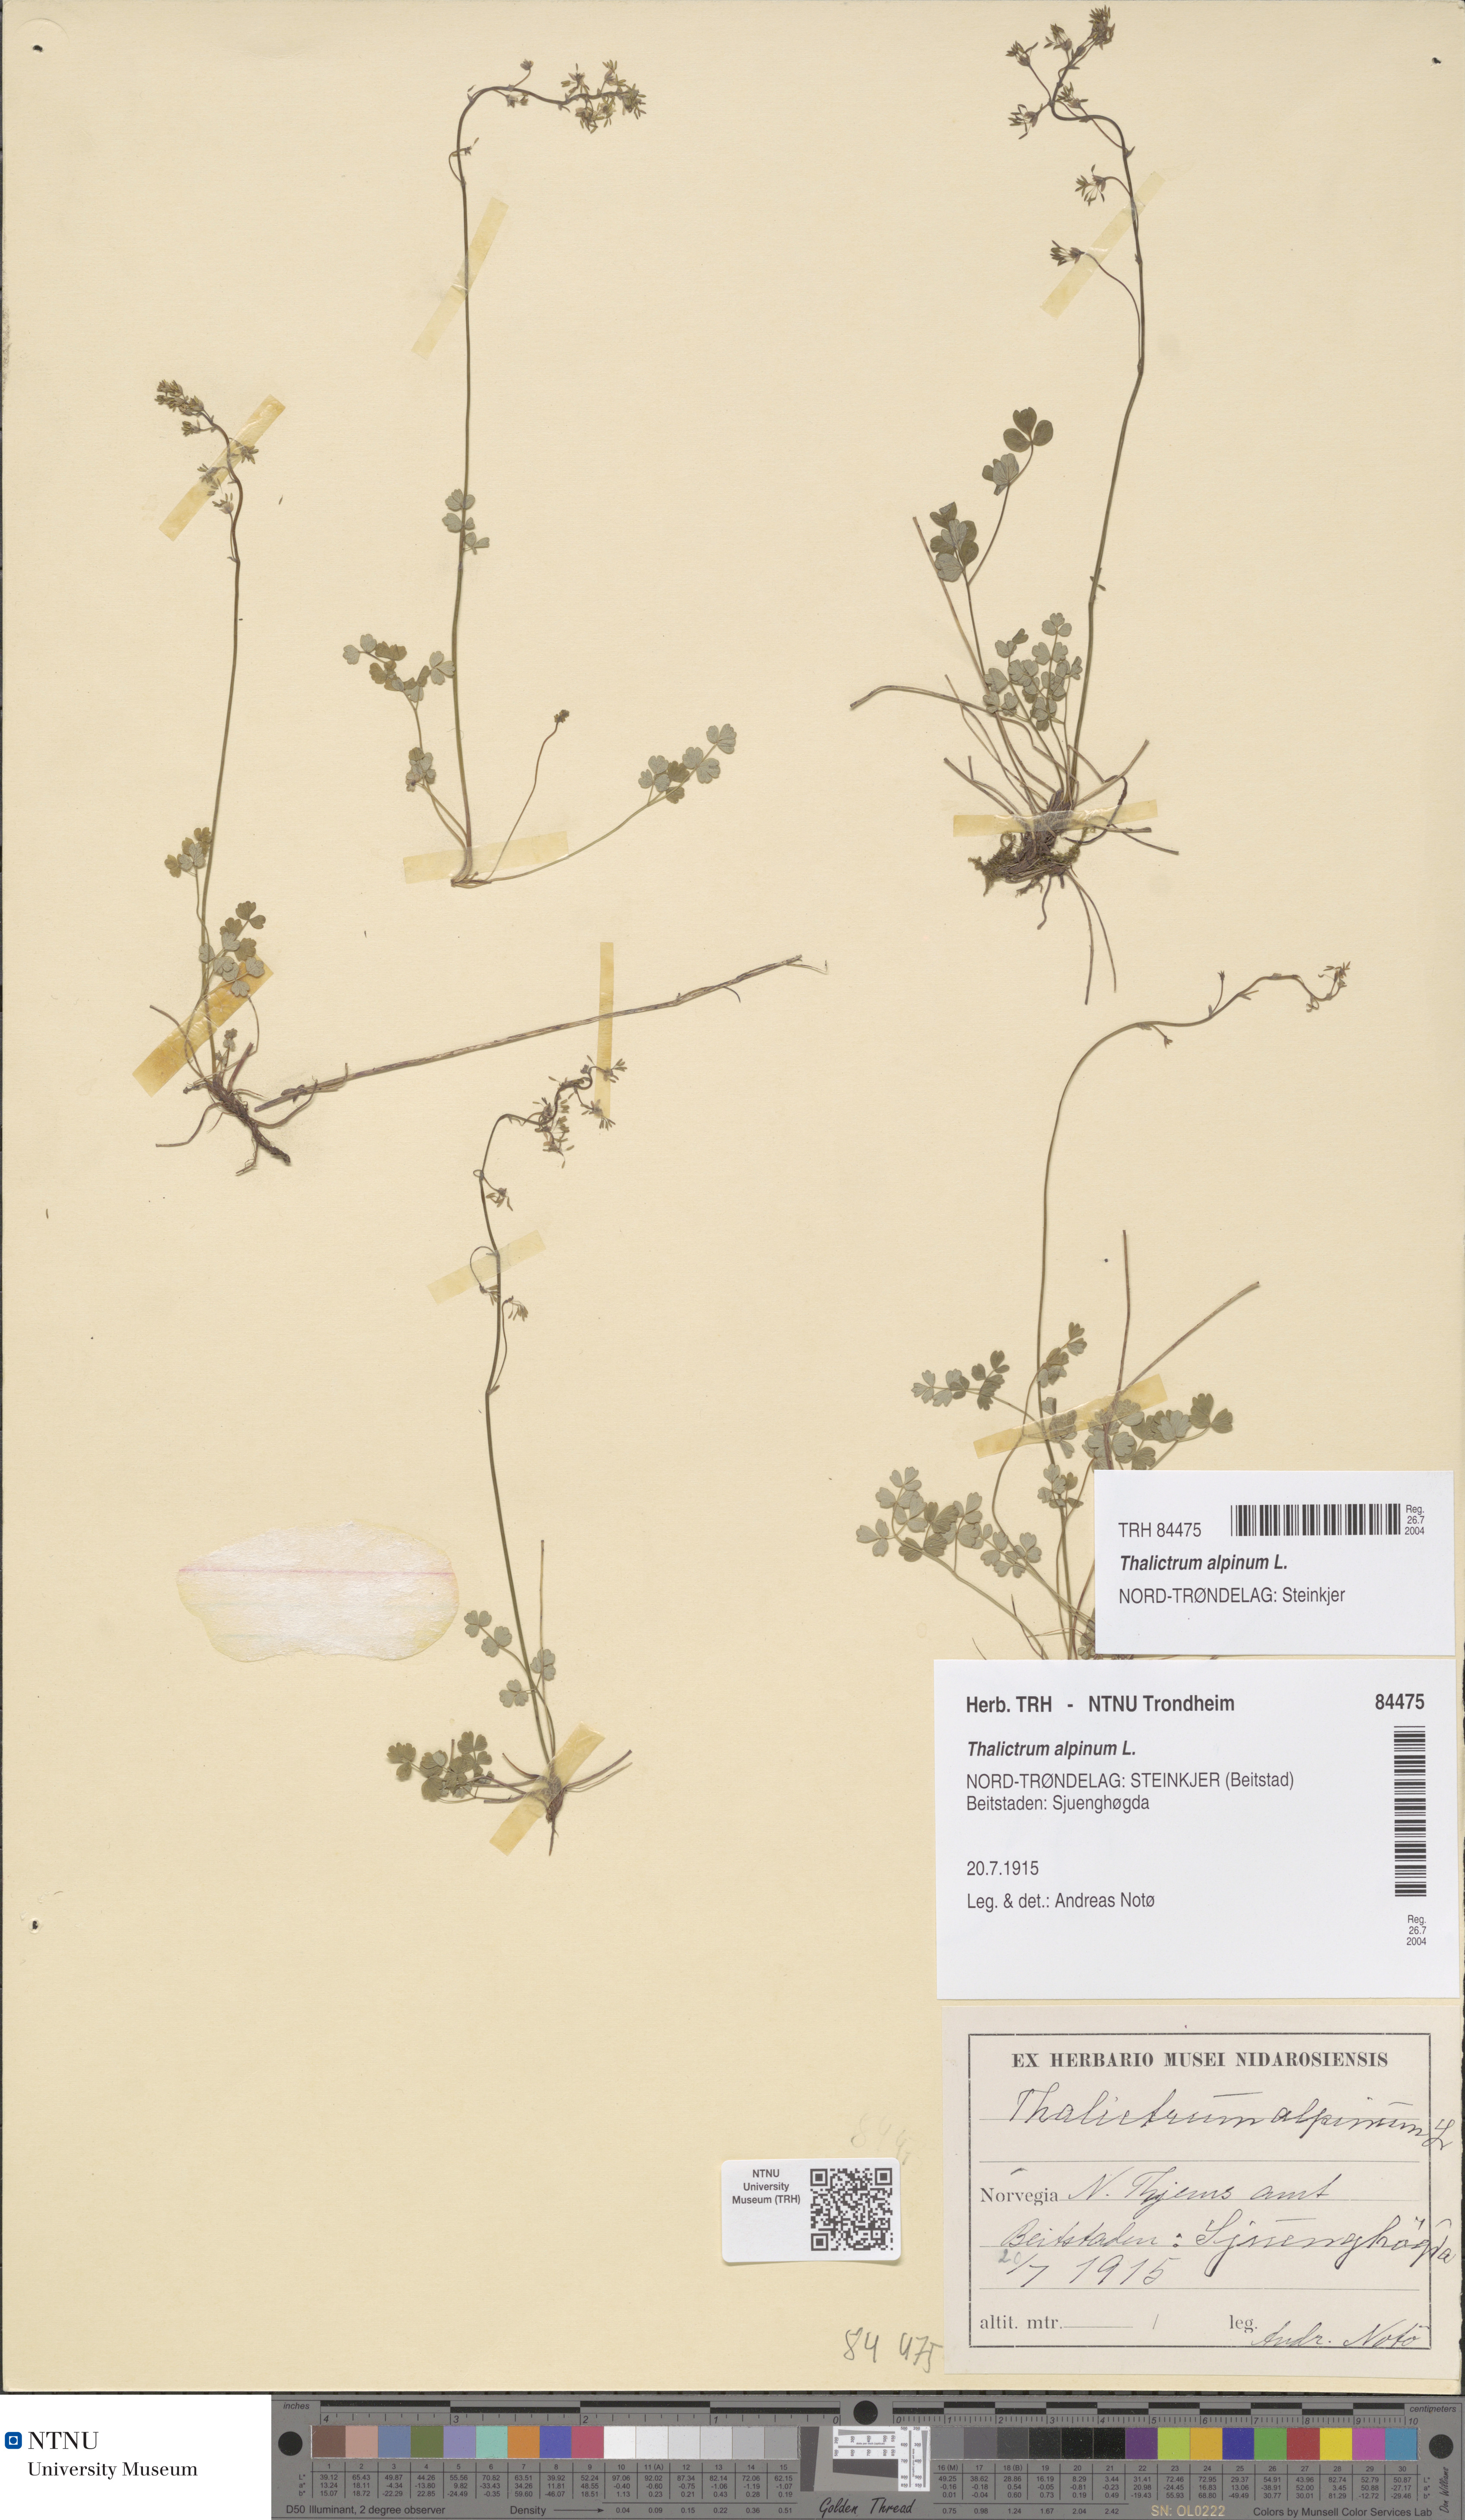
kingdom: Plantae
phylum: Tracheophyta
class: Magnoliopsida
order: Ranunculales
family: Ranunculaceae
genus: Thalictrum
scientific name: Thalictrum alpinum
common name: Alpine meadow-rue
